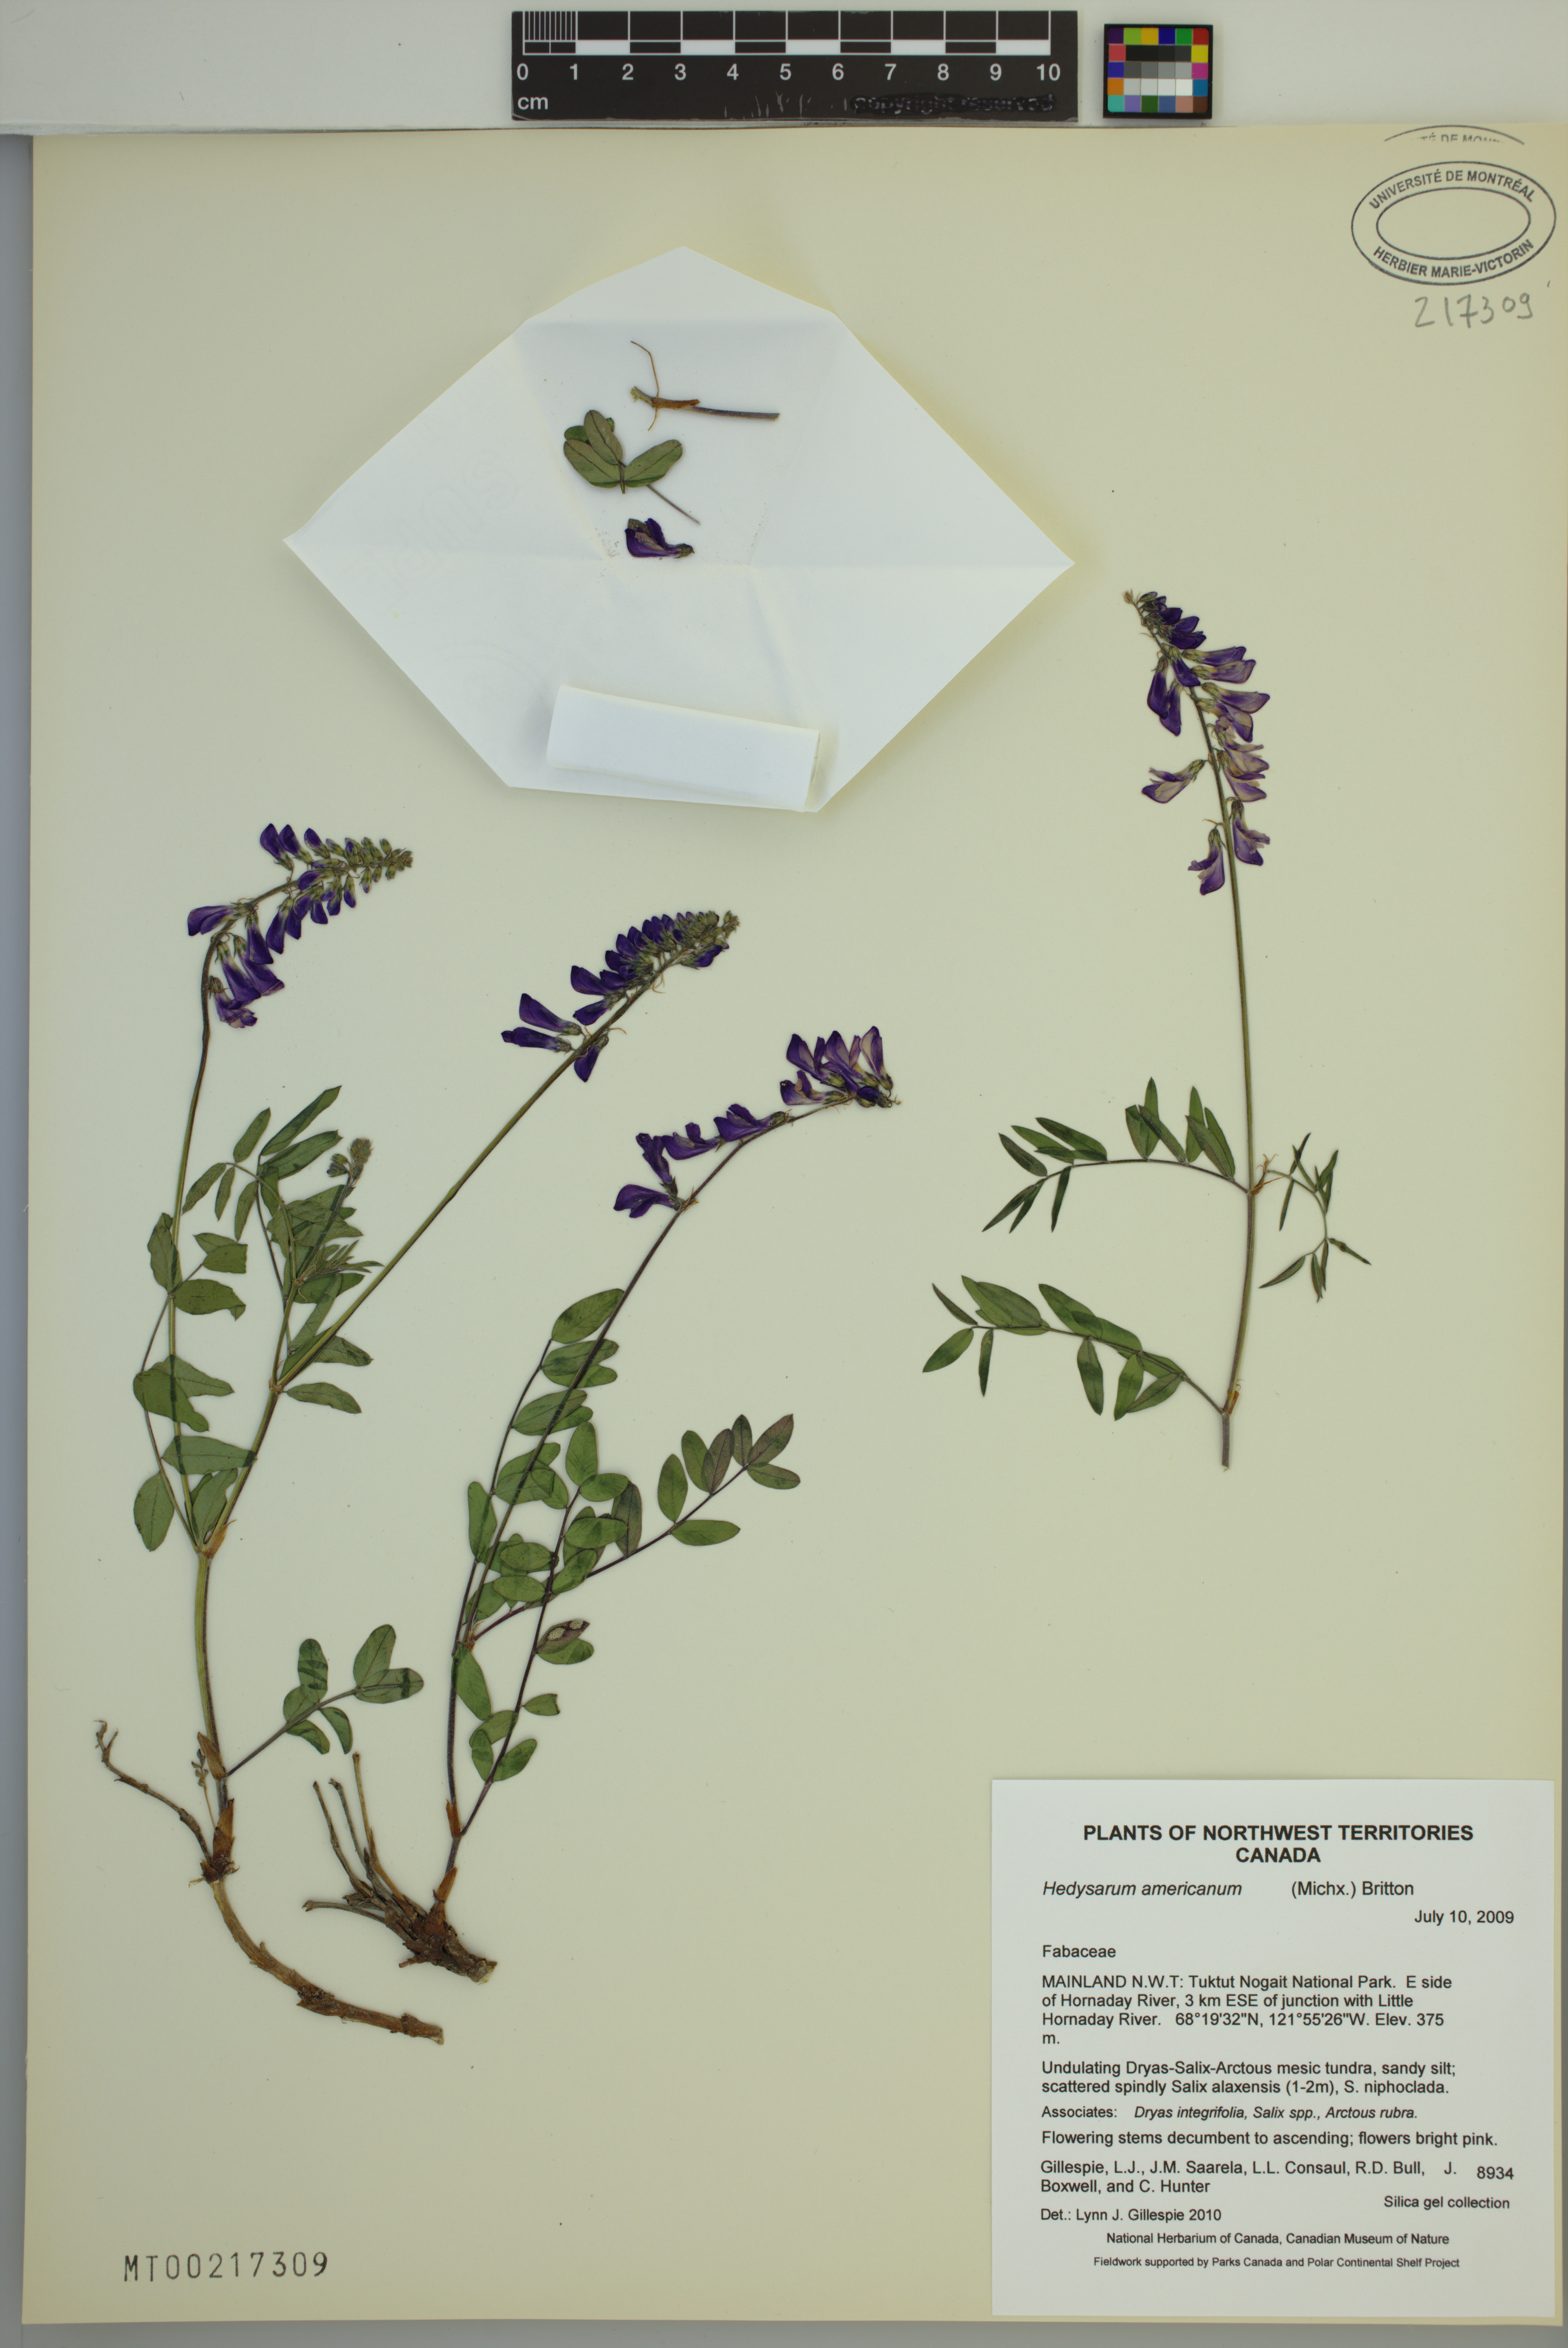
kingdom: Plantae
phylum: Tracheophyta
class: Magnoliopsida
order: Fabales
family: Fabaceae
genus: Hedysarum
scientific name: Hedysarum americanum
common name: Alpine hedysarum
